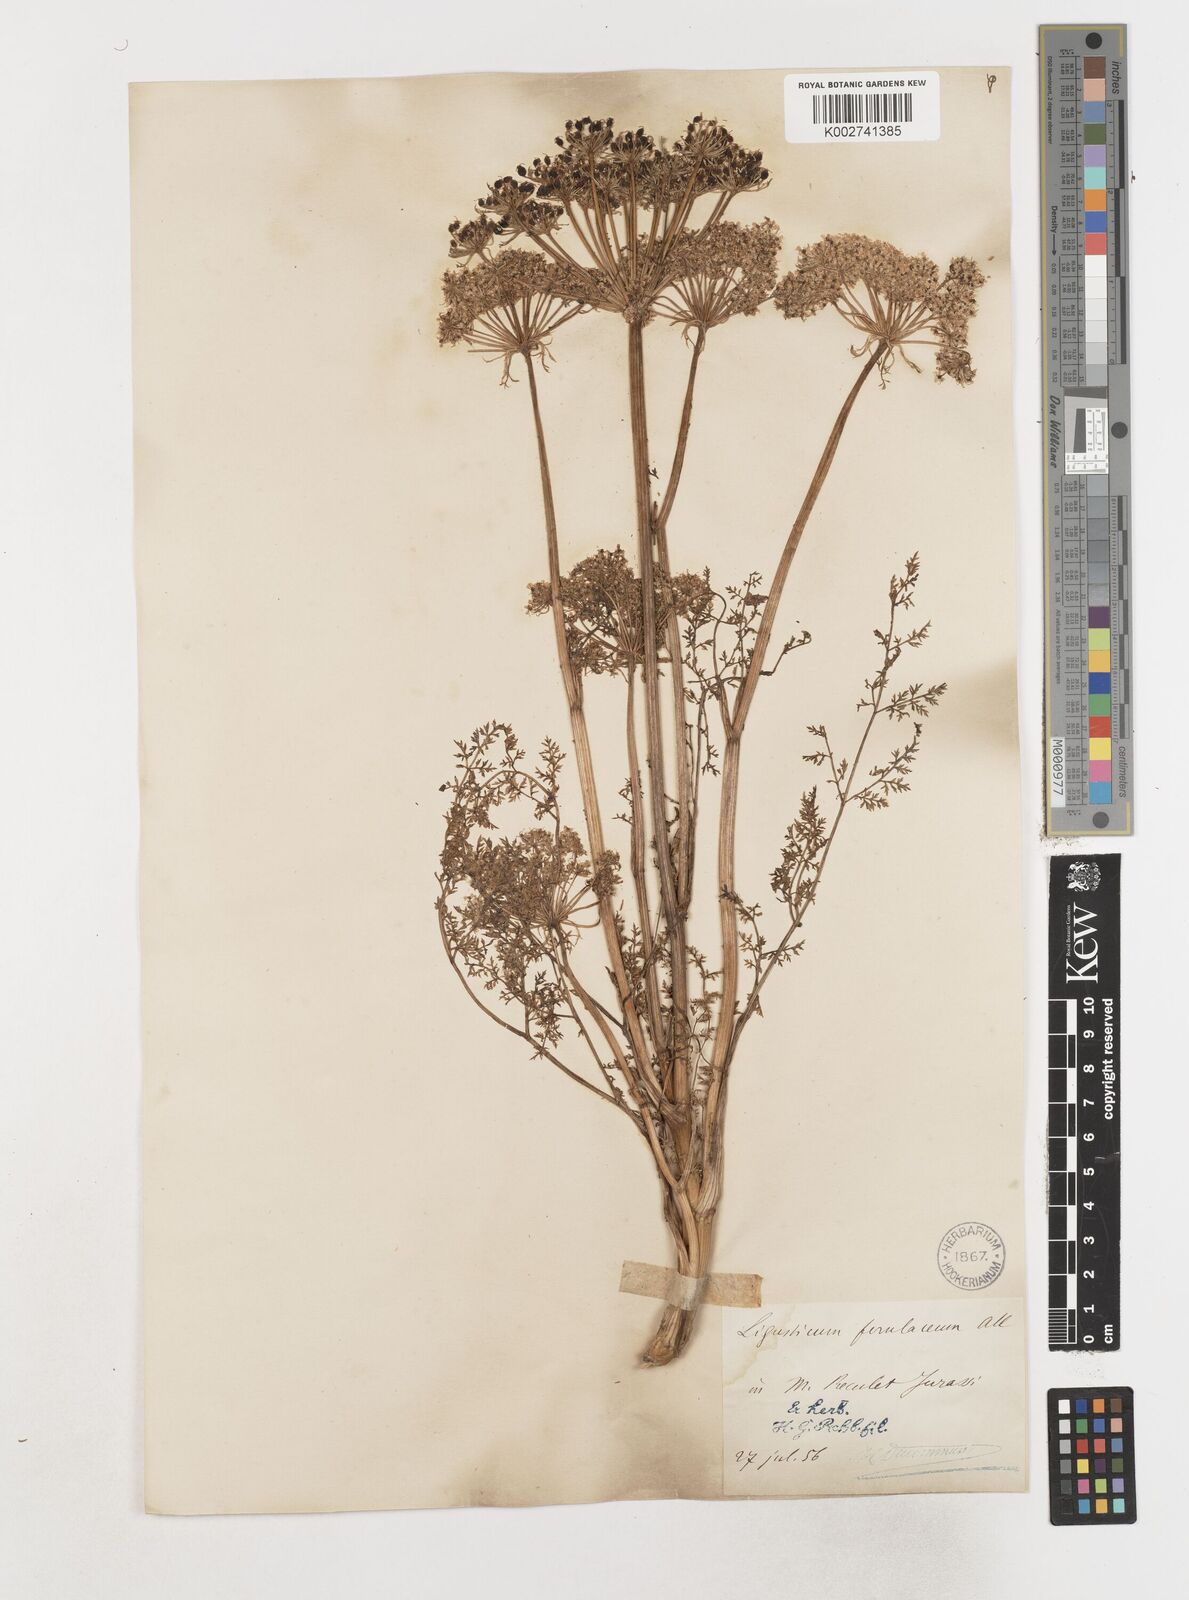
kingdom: Plantae
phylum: Tracheophyta
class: Magnoliopsida
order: Apiales
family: Apiaceae
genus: Coristospermum
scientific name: Coristospermum ferulaceum
